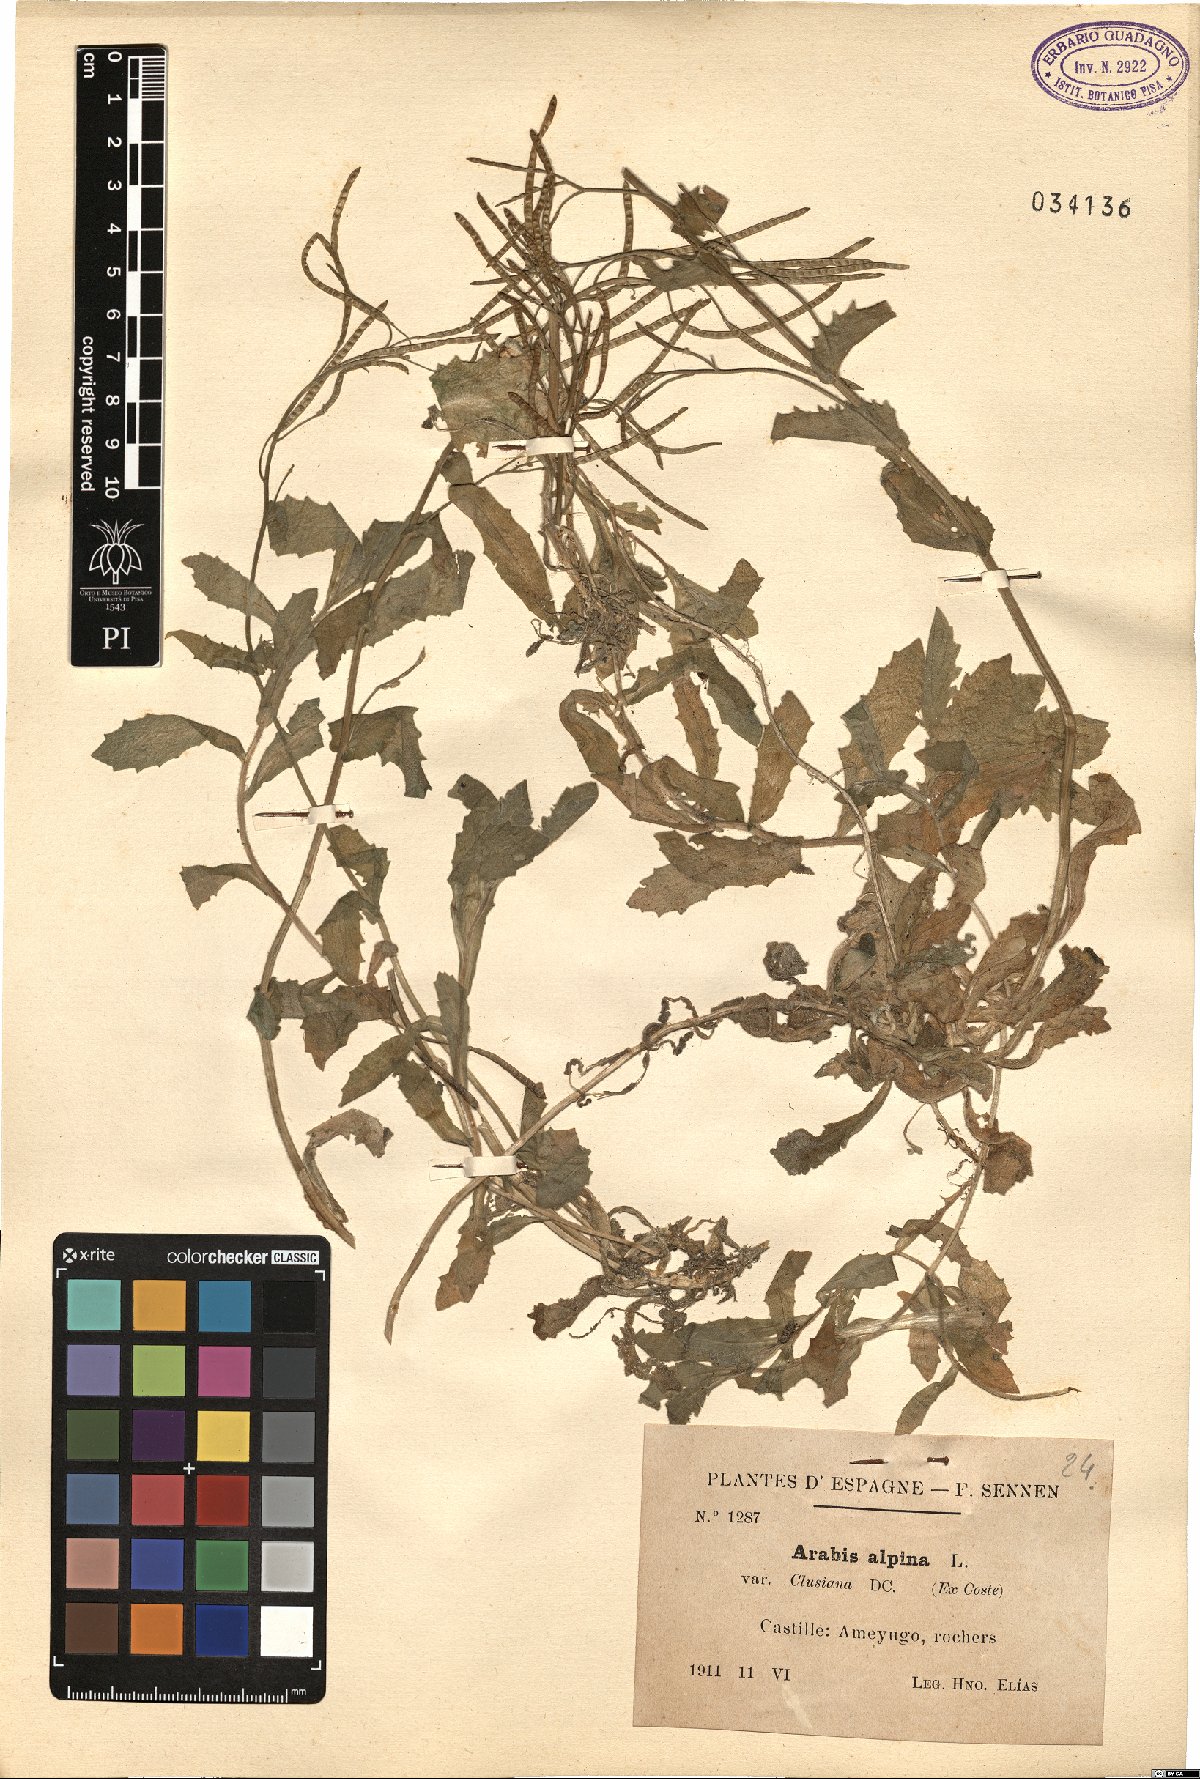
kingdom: Plantae
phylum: Tracheophyta
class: Magnoliopsida
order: Brassicales
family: Brassicaceae
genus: Arabis
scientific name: Arabis alpina
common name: Alpine rock-cress
